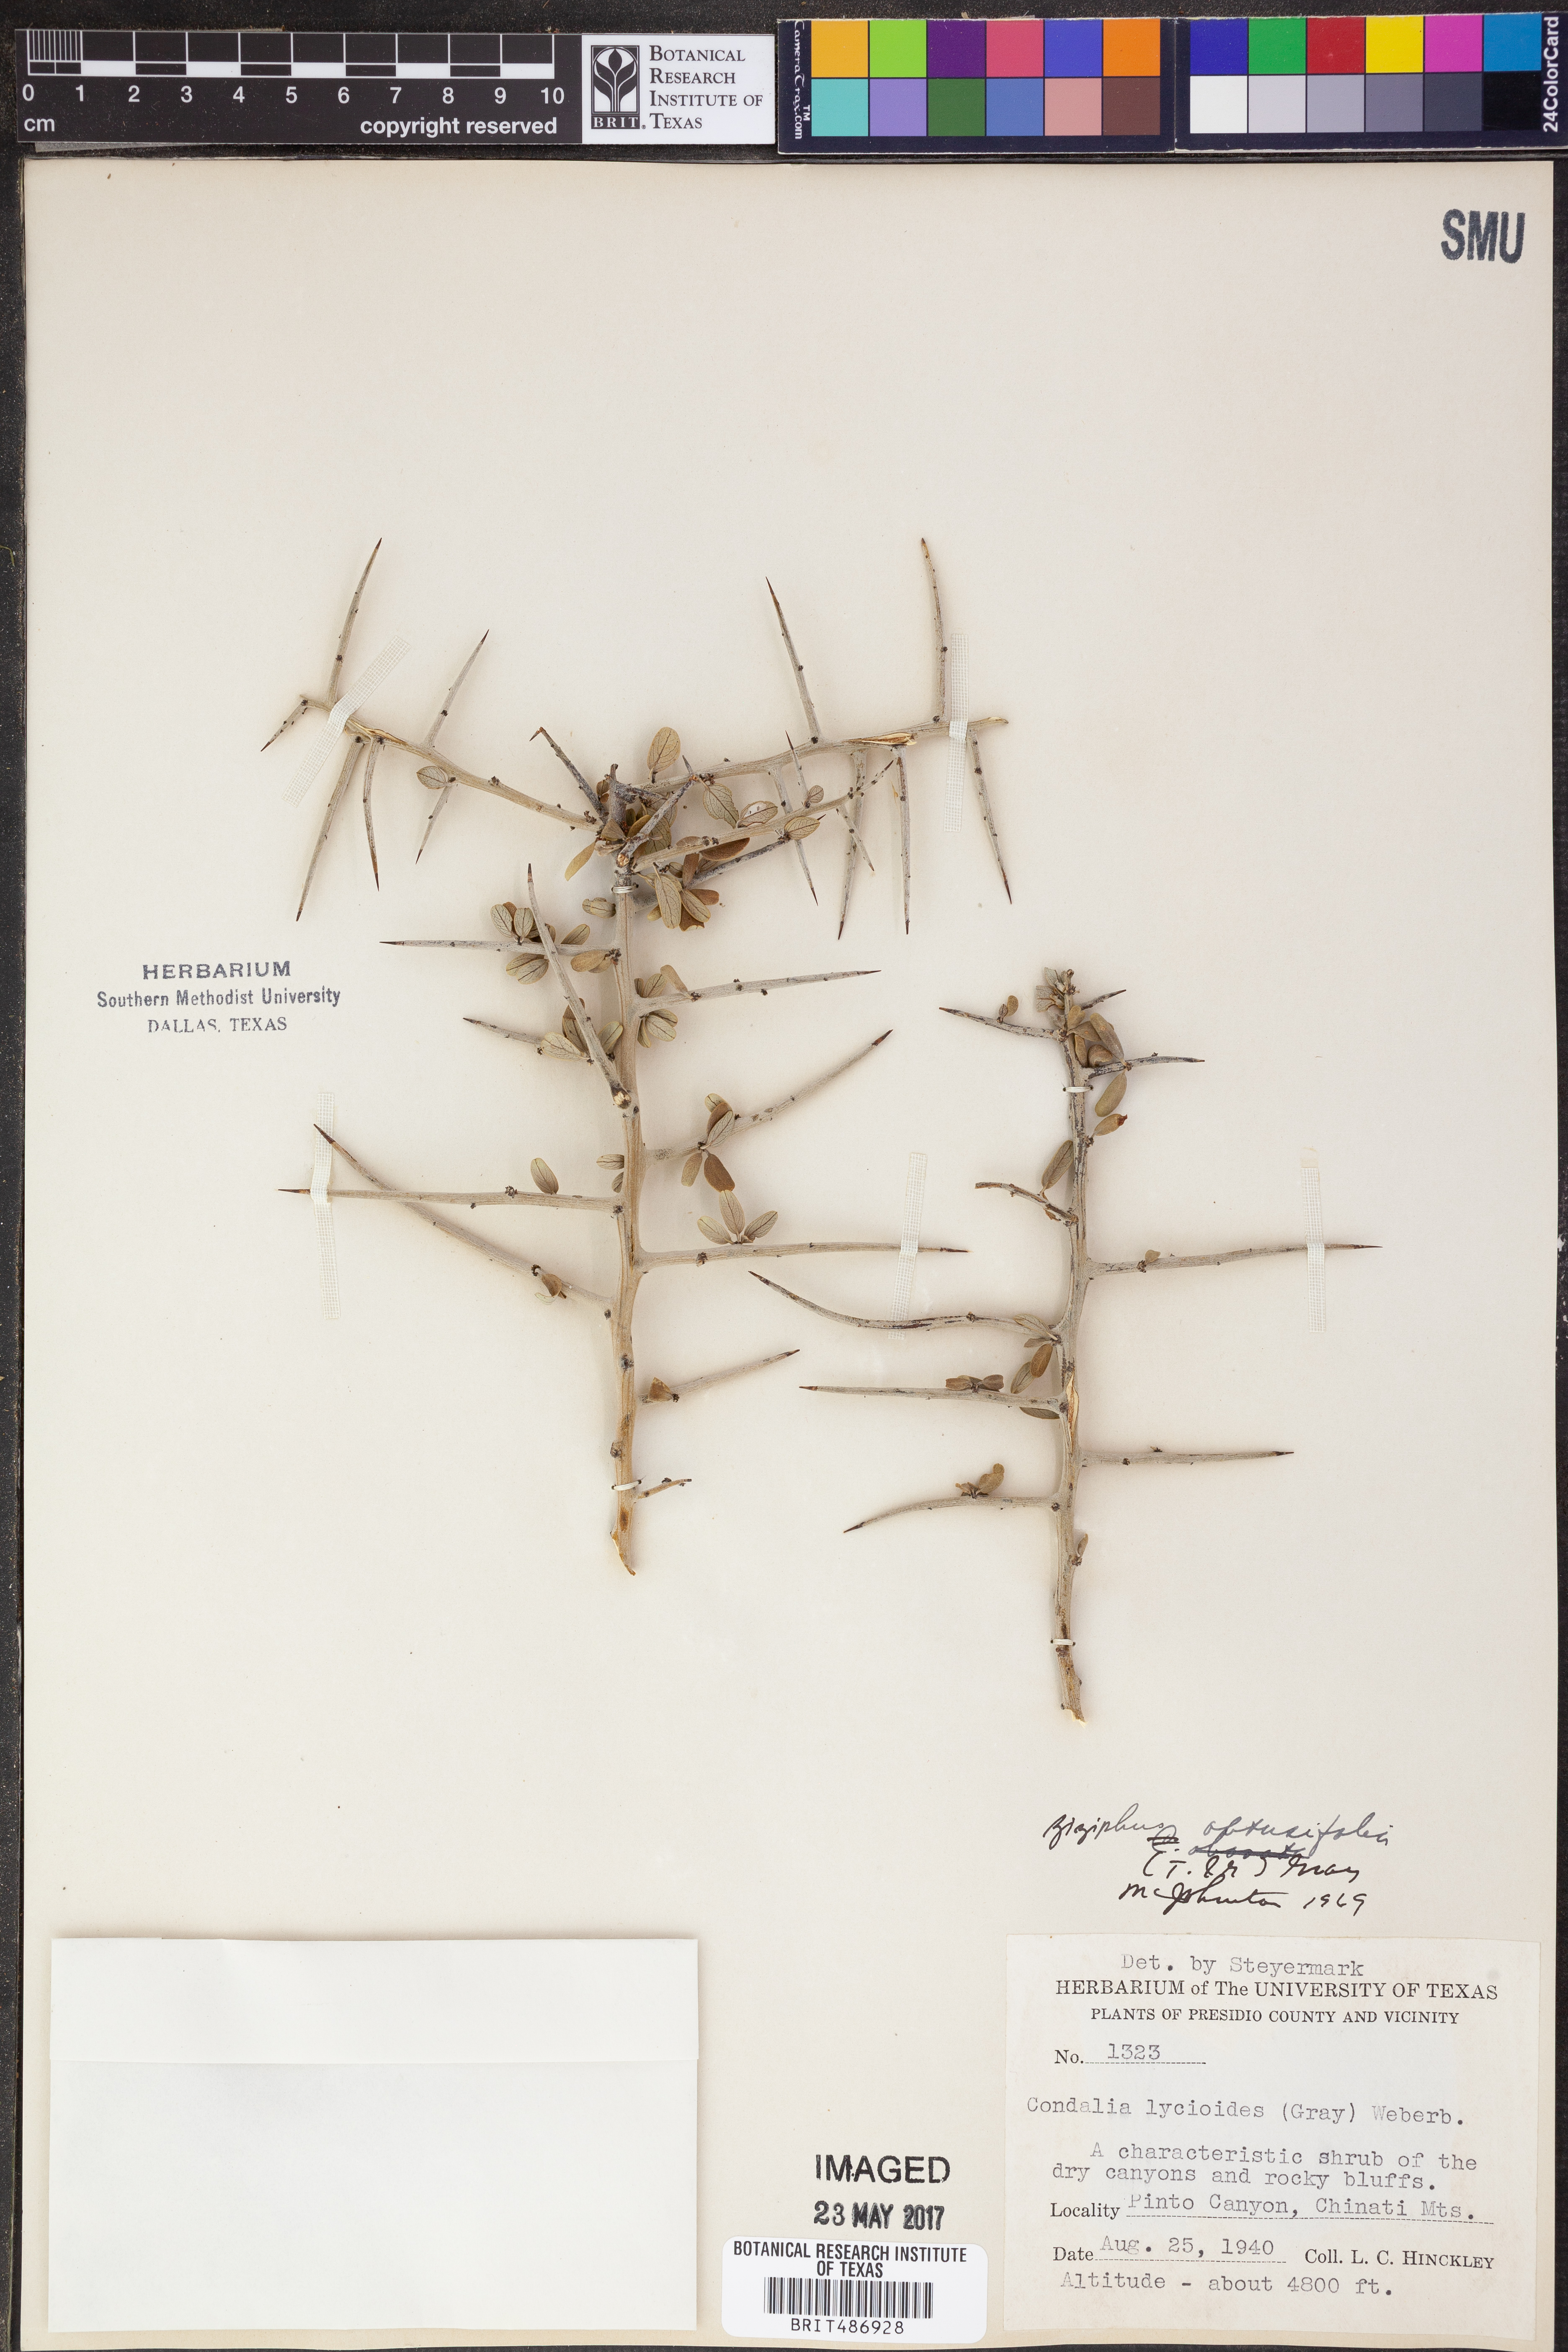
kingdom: Plantae
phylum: Tracheophyta
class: Magnoliopsida
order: Rosales
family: Rhamnaceae
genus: Sarcomphalus
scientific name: Sarcomphalus obtusifolius
